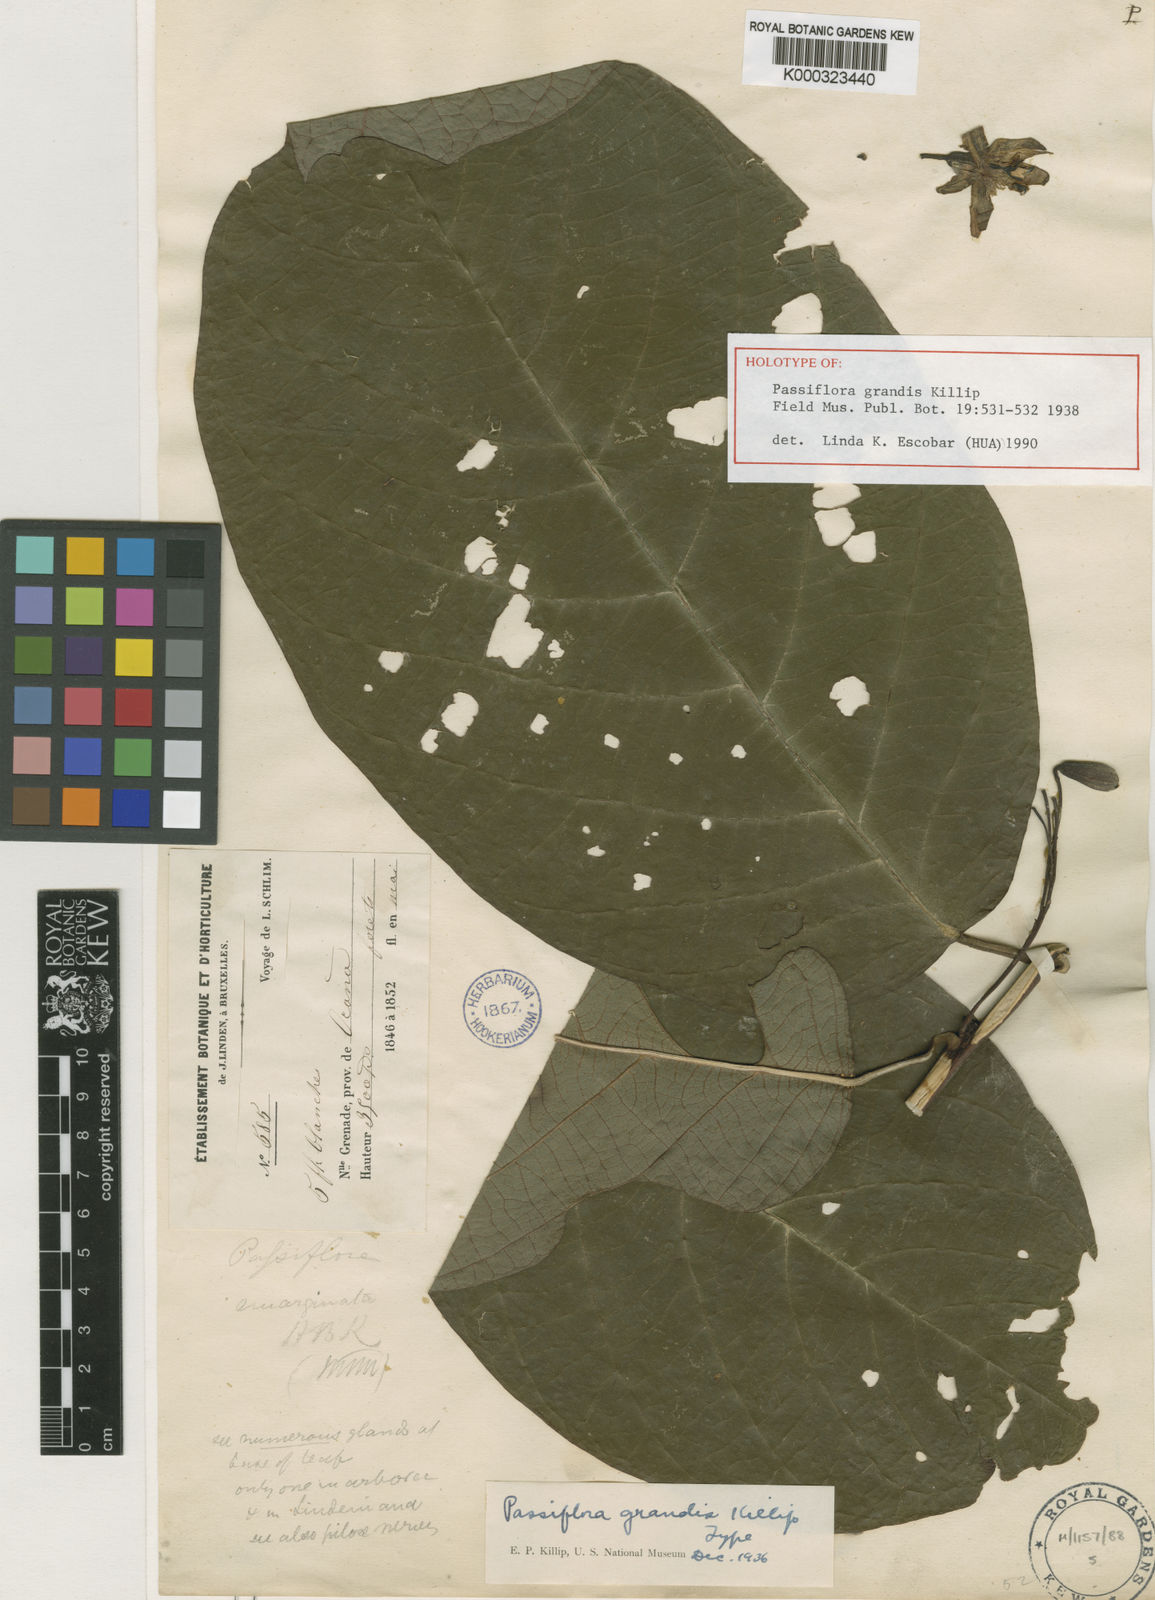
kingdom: Plantae
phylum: Tracheophyta
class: Magnoliopsida
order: Malpighiales
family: Passifloraceae
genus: Passiflora
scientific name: Passiflora grandis
